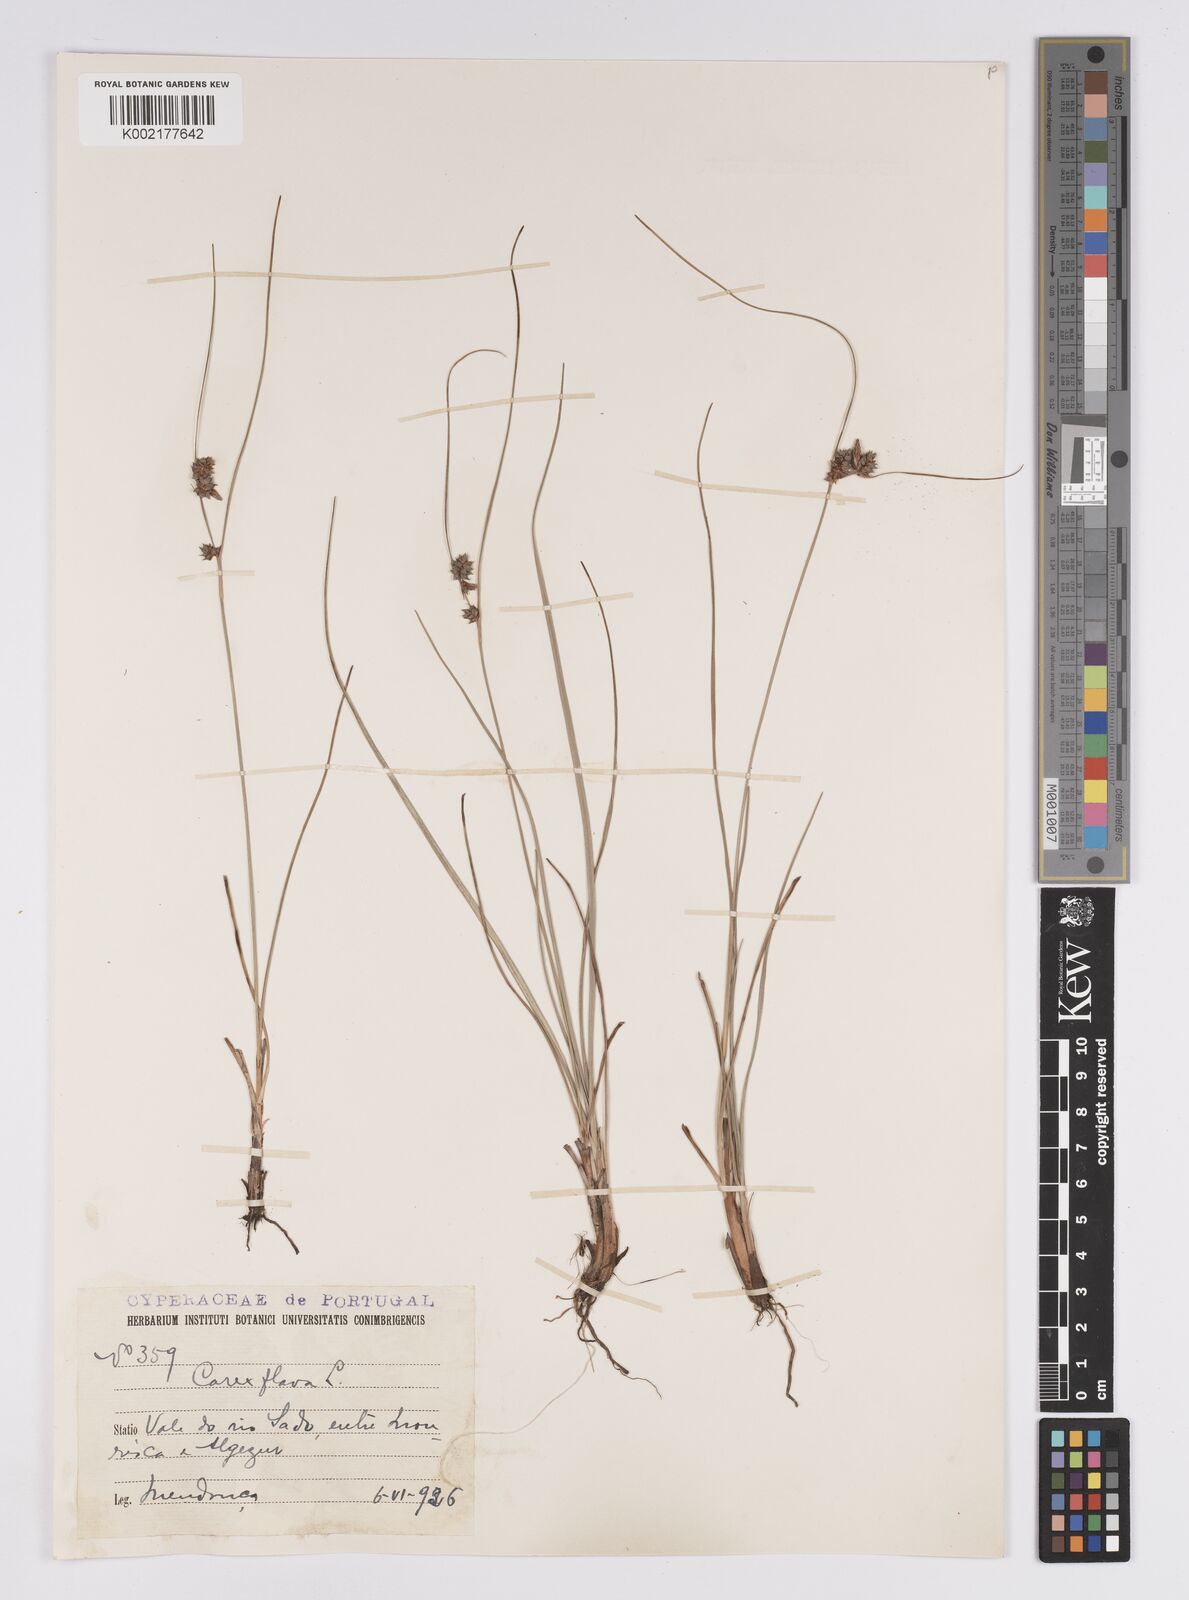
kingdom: Plantae
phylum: Tracheophyta
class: Liliopsida
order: Poales
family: Cyperaceae
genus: Carex
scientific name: Carex extensa
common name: Long-bracted sedge
